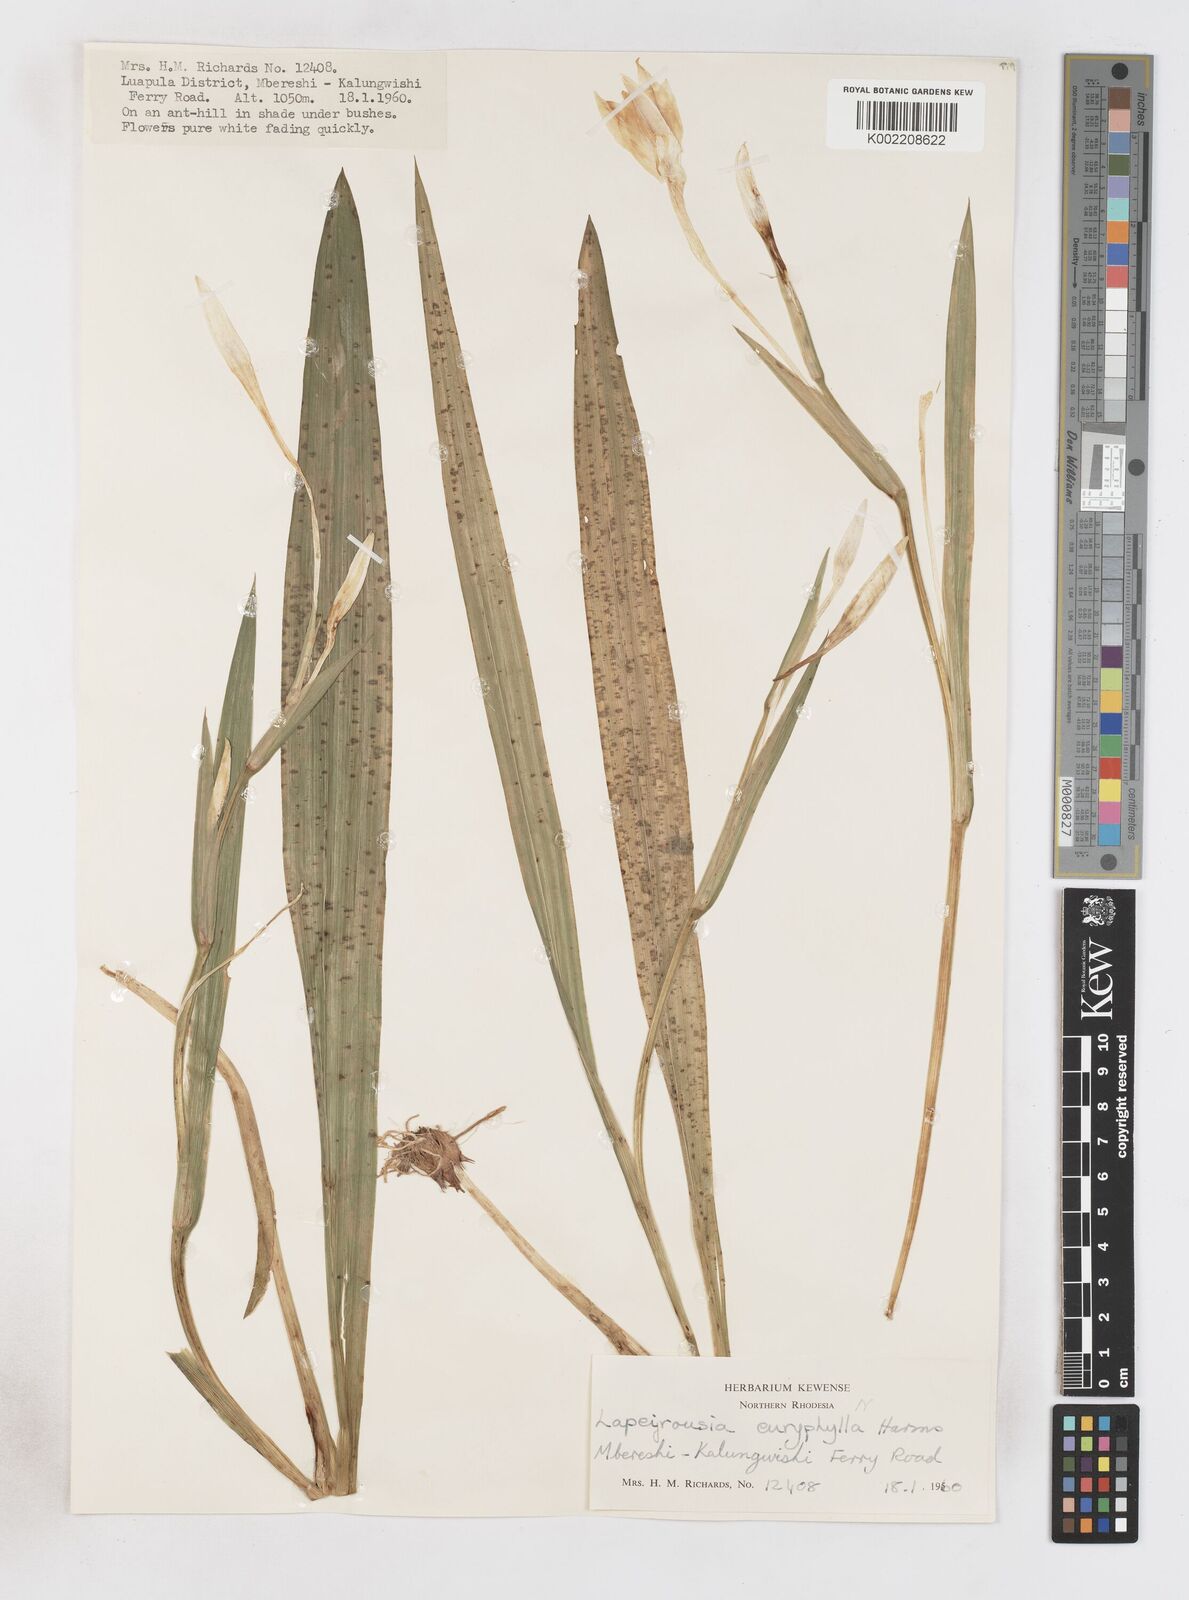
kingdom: Plantae
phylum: Tracheophyta
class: Liliopsida
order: Asparagales
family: Iridaceae
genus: Savannosiphon
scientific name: Savannosiphon euryphylla
